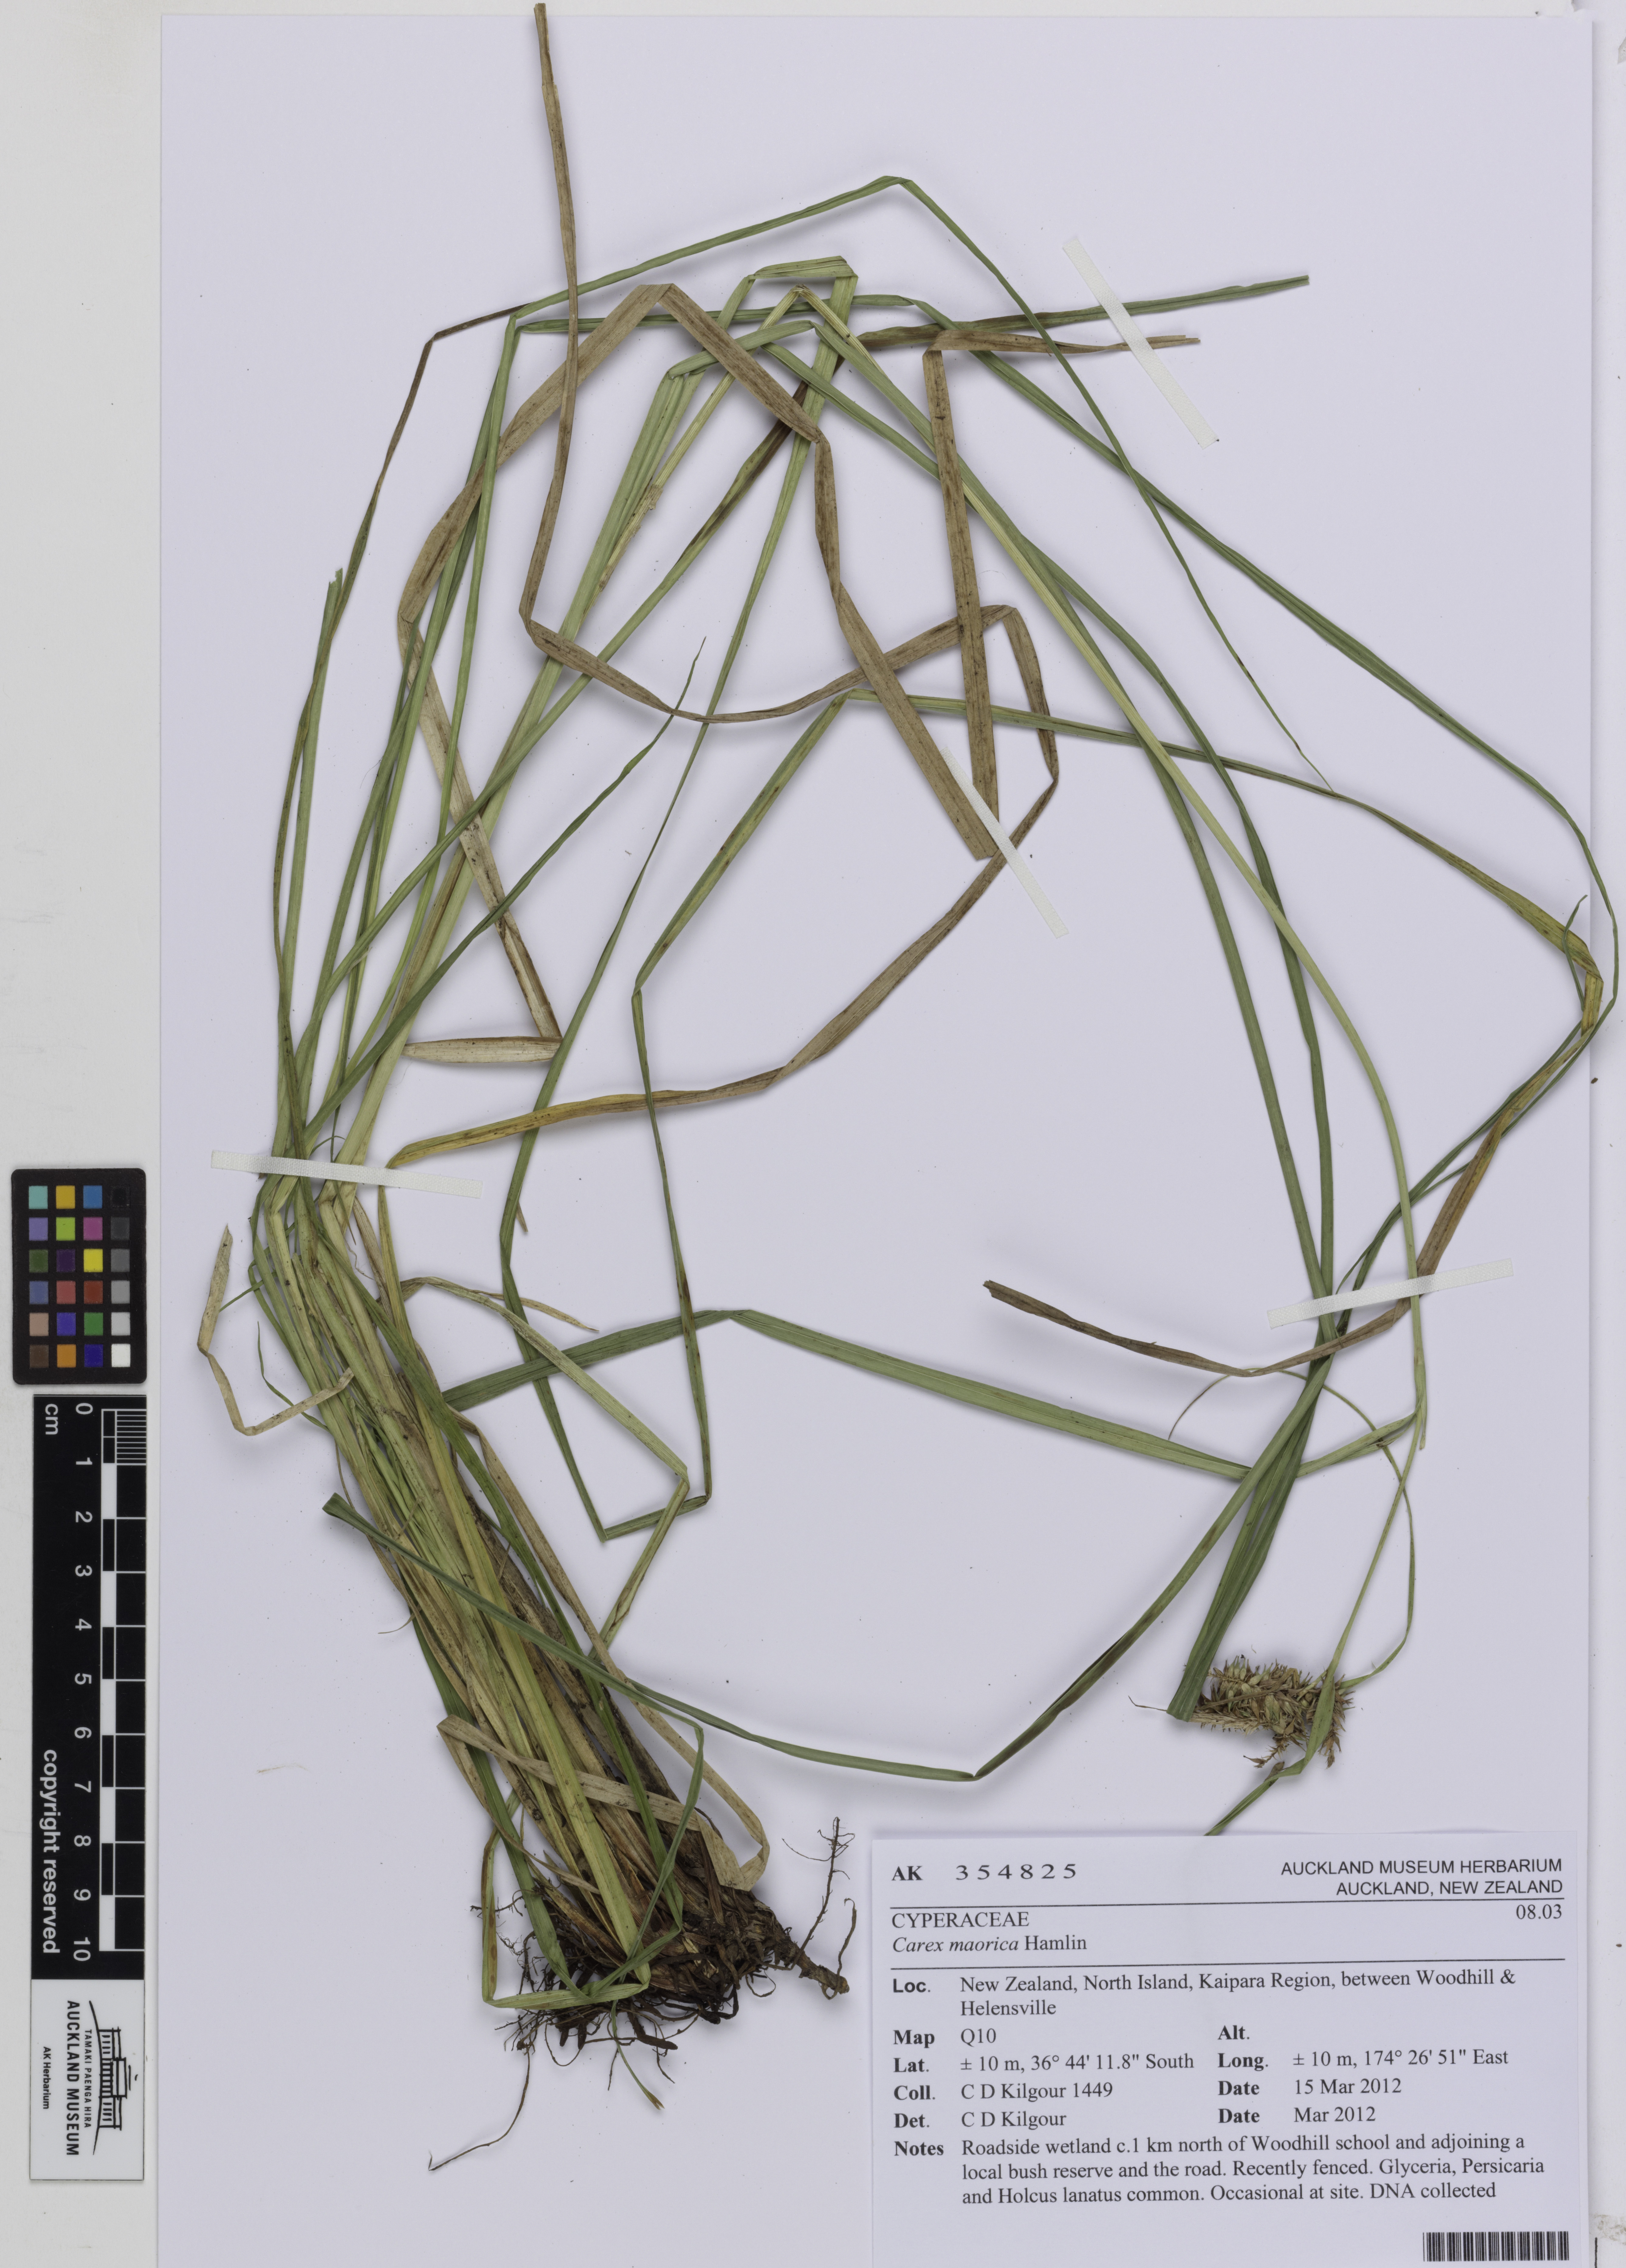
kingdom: Plantae
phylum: Tracheophyta
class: Liliopsida
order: Poales
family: Cyperaceae
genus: Carex
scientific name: Carex maorica
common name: Maori sedge
